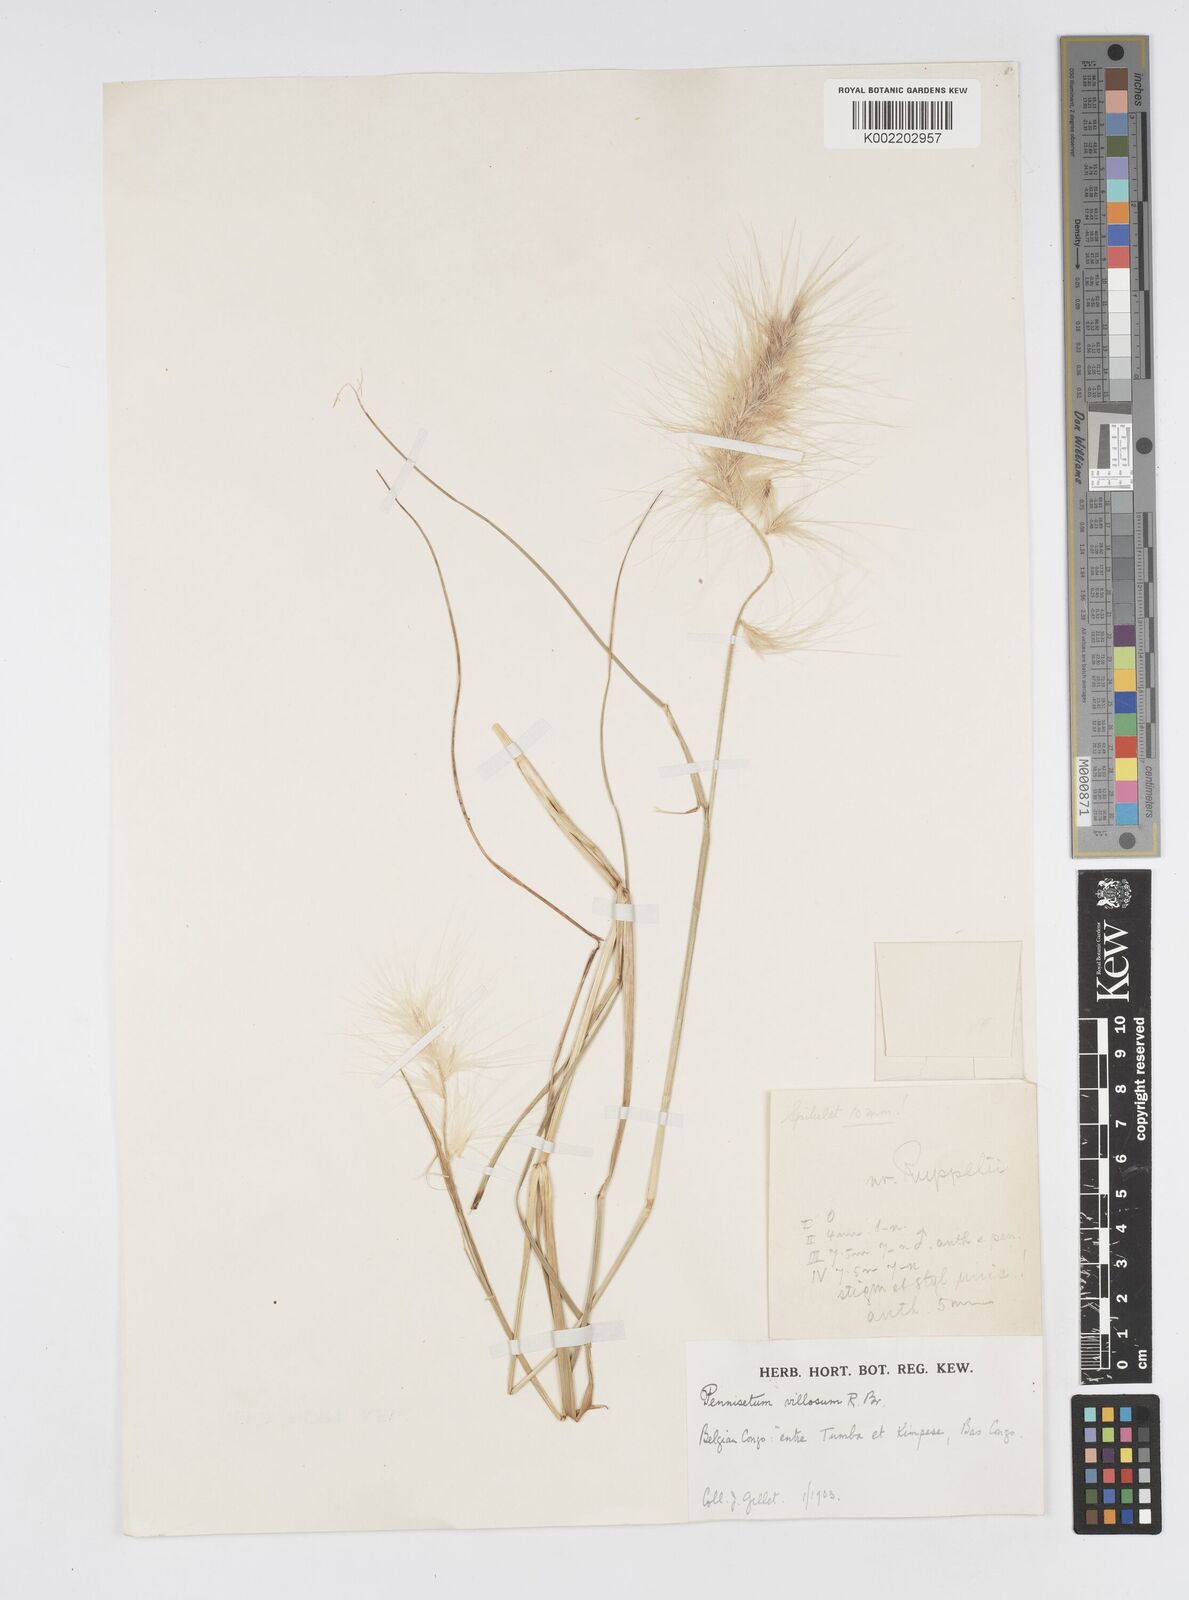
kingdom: Plantae
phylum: Tracheophyta
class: Liliopsida
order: Poales
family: Poaceae
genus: Cenchrus
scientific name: Cenchrus longisetus
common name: Feathertop
